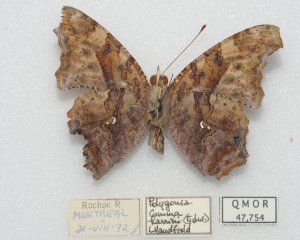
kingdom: Animalia
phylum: Arthropoda
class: Insecta
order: Lepidoptera
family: Nymphalidae
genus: Polygonia
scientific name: Polygonia comma
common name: Eastern Comma
